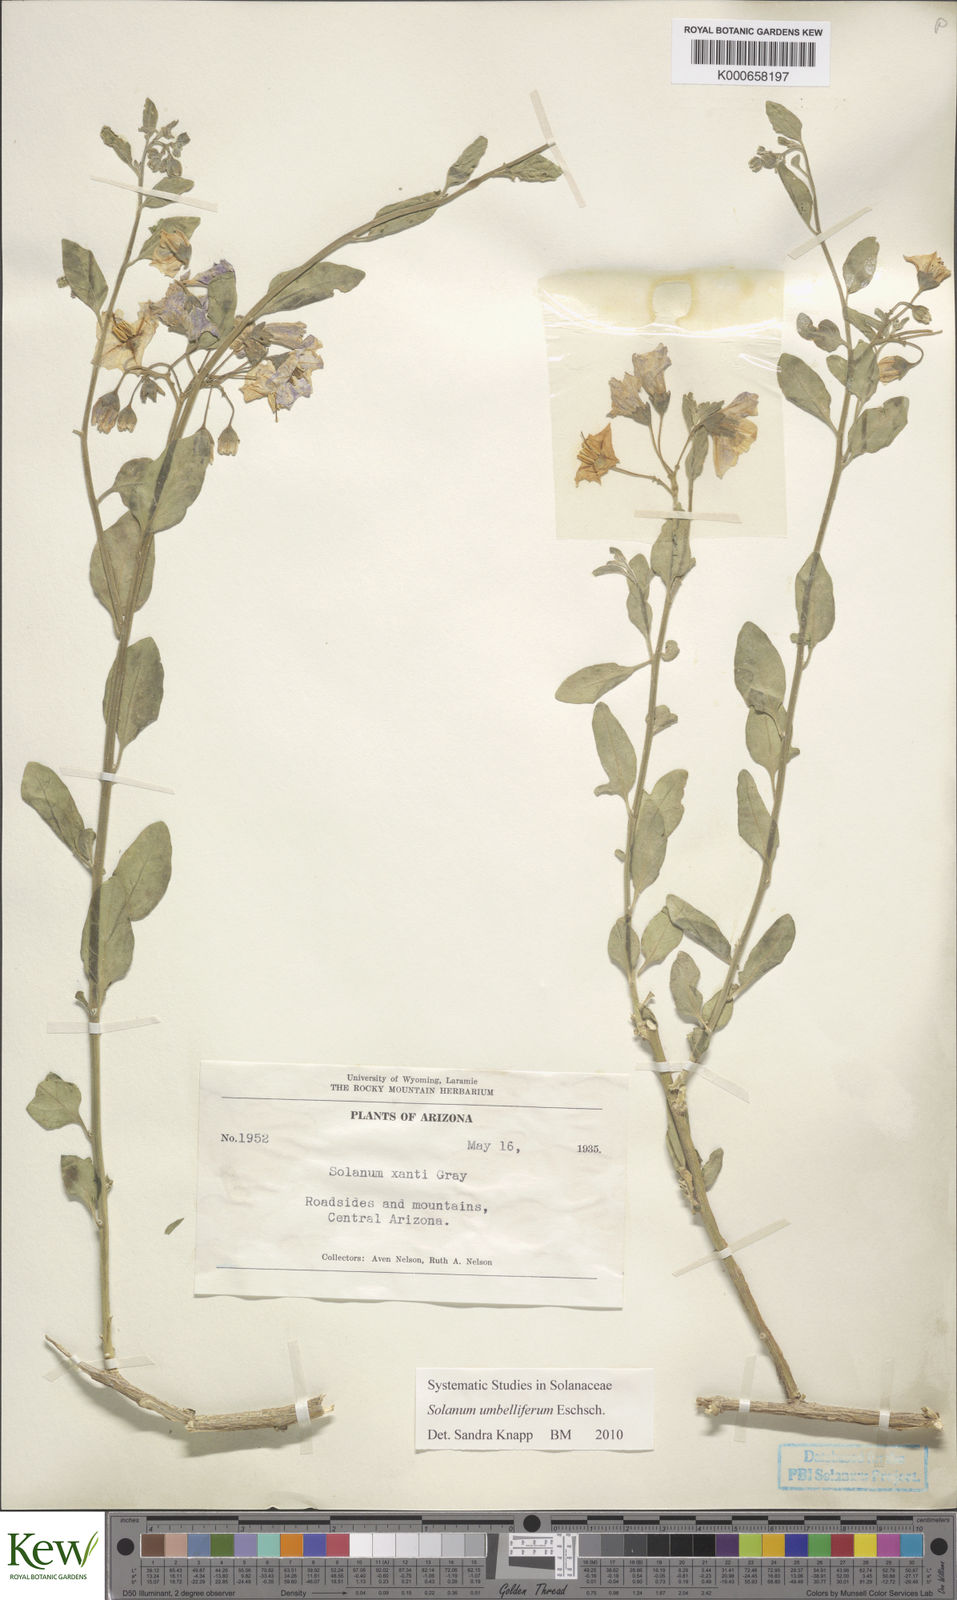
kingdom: Plantae
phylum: Tracheophyta
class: Magnoliopsida
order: Solanales
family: Solanaceae
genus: Solanum
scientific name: Solanum umbelliferum
